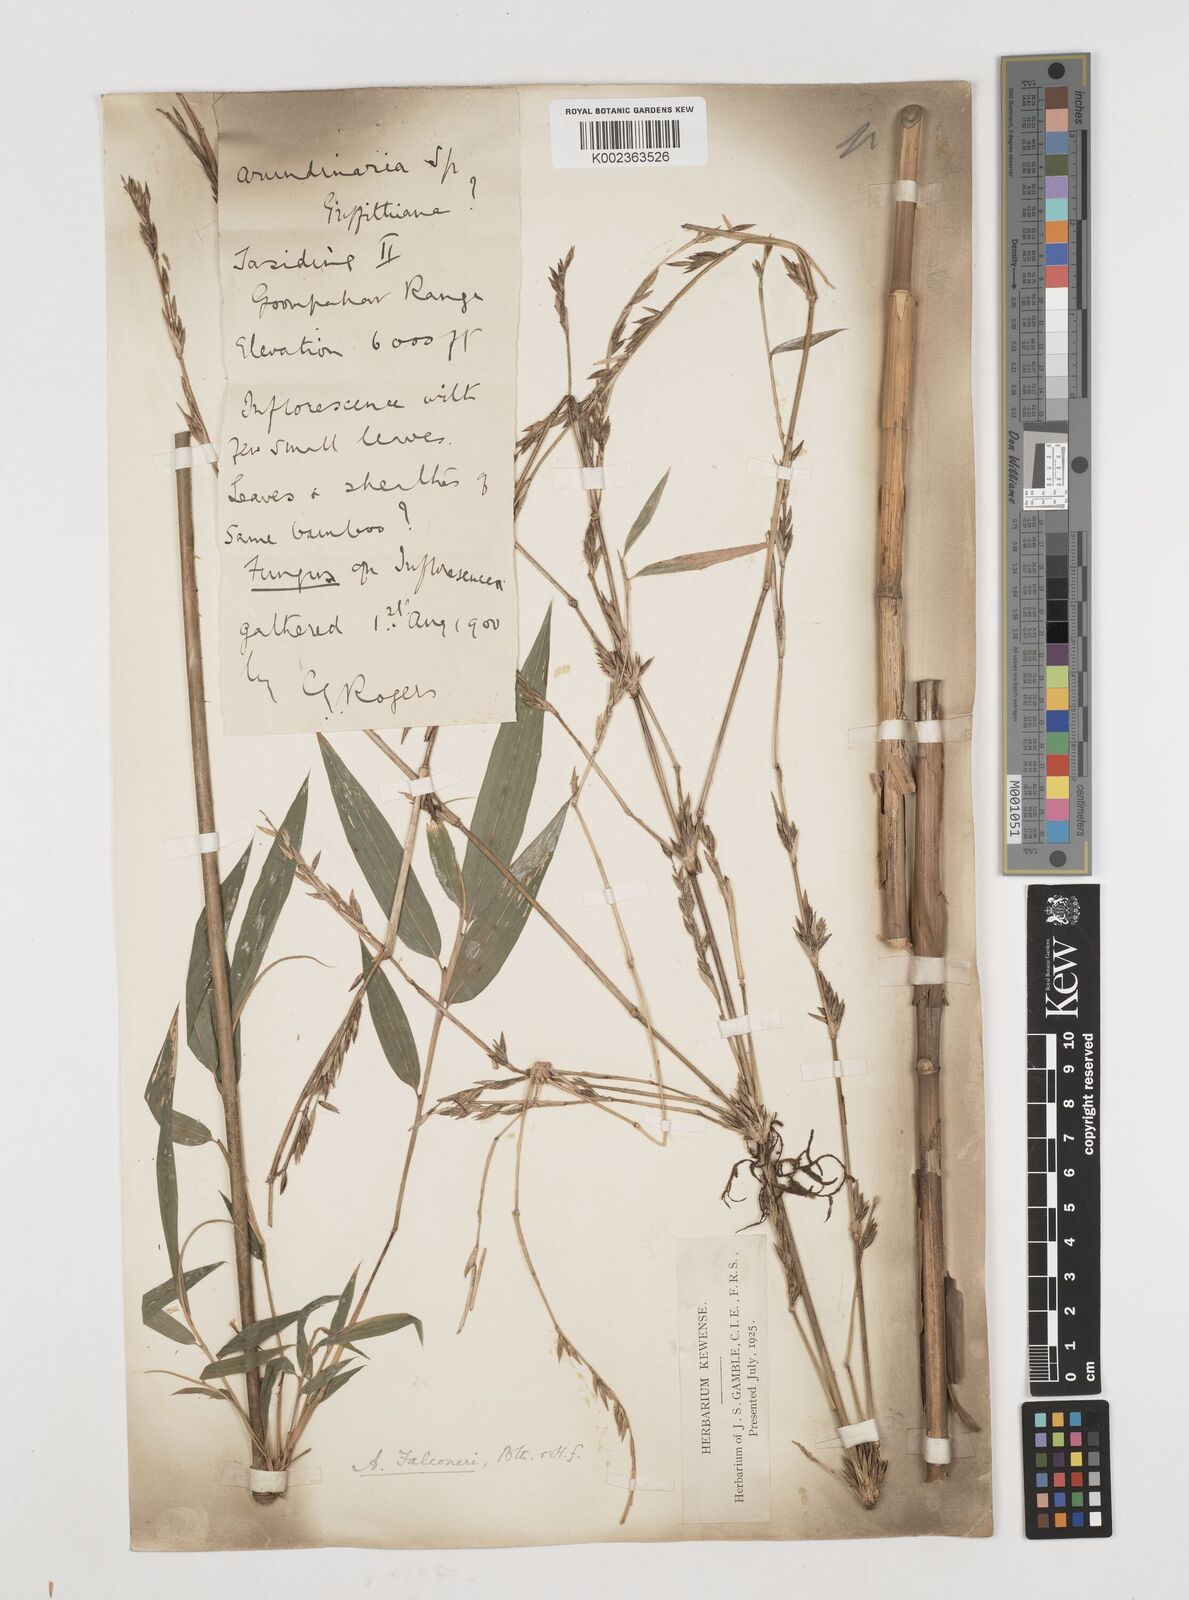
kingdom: Plantae
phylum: Tracheophyta
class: Liliopsida
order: Poales
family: Poaceae
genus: Himalayacalamus
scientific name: Himalayacalamus falconeri
